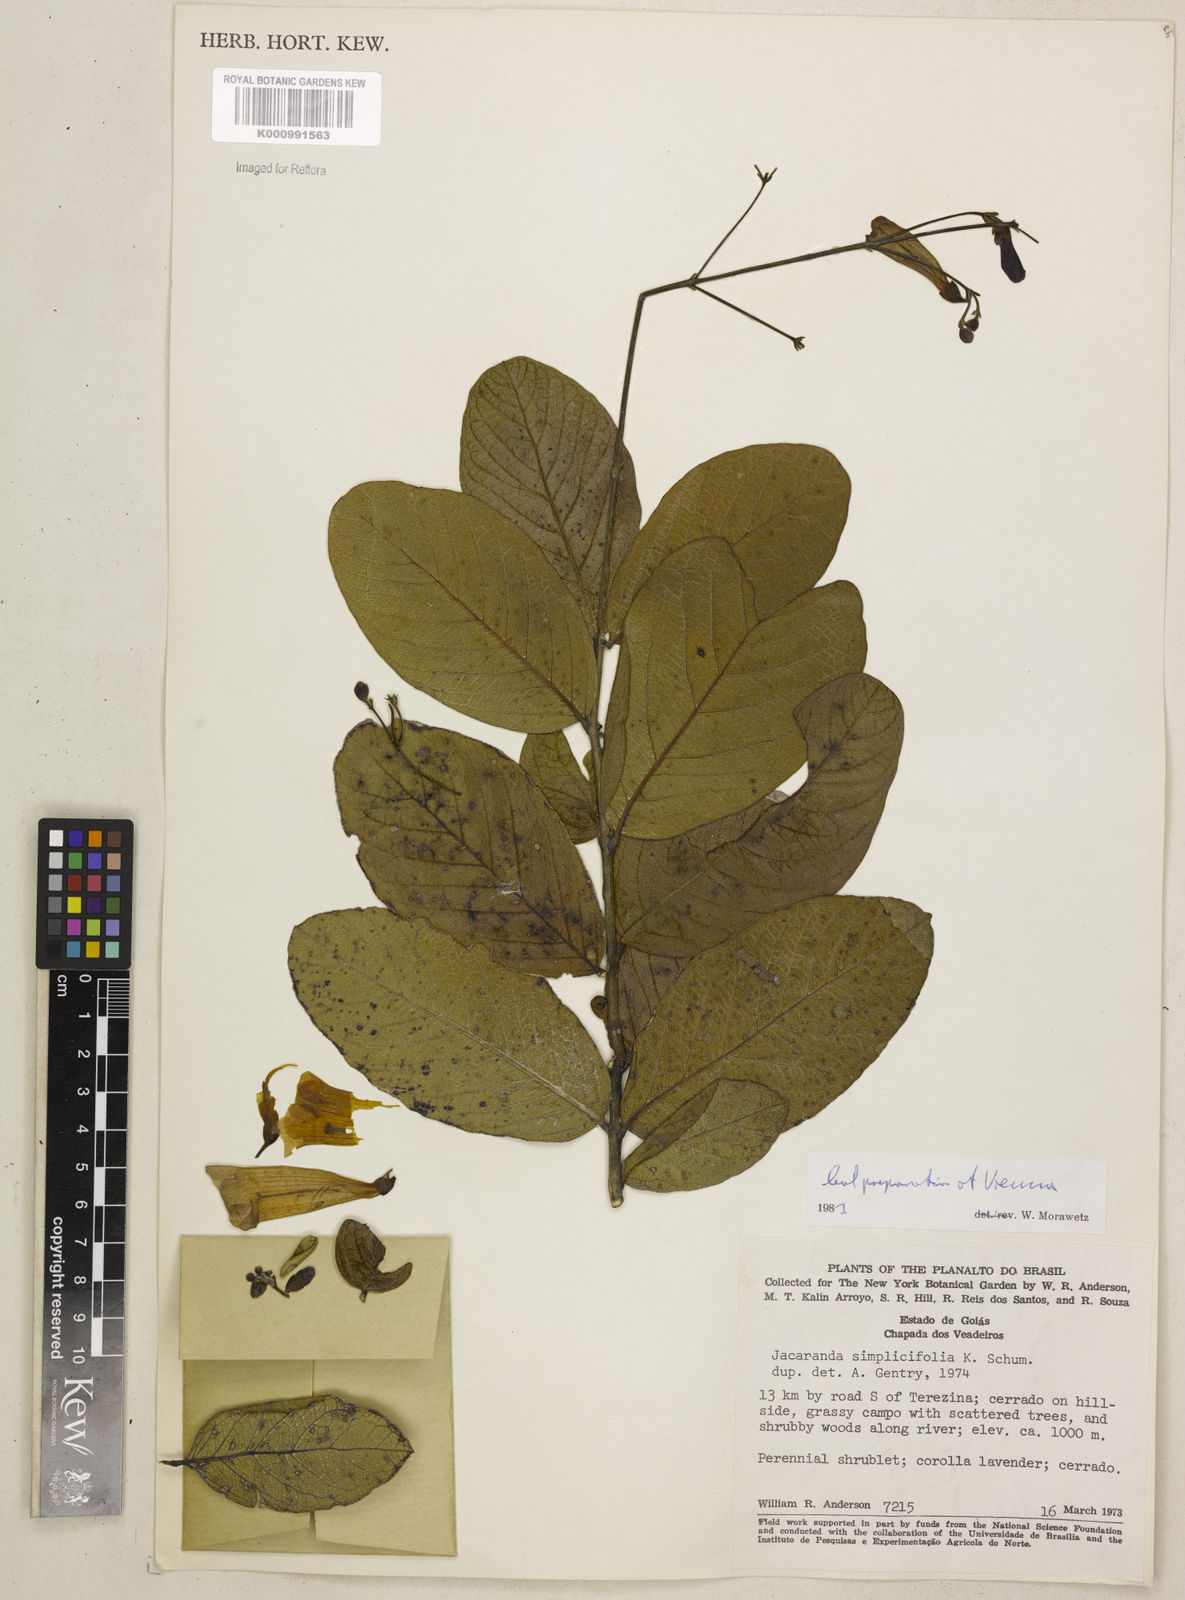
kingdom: Plantae
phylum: Tracheophyta
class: Magnoliopsida
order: Lamiales
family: Bignoniaceae
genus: Jacaranda
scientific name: Jacaranda simplicifolia
